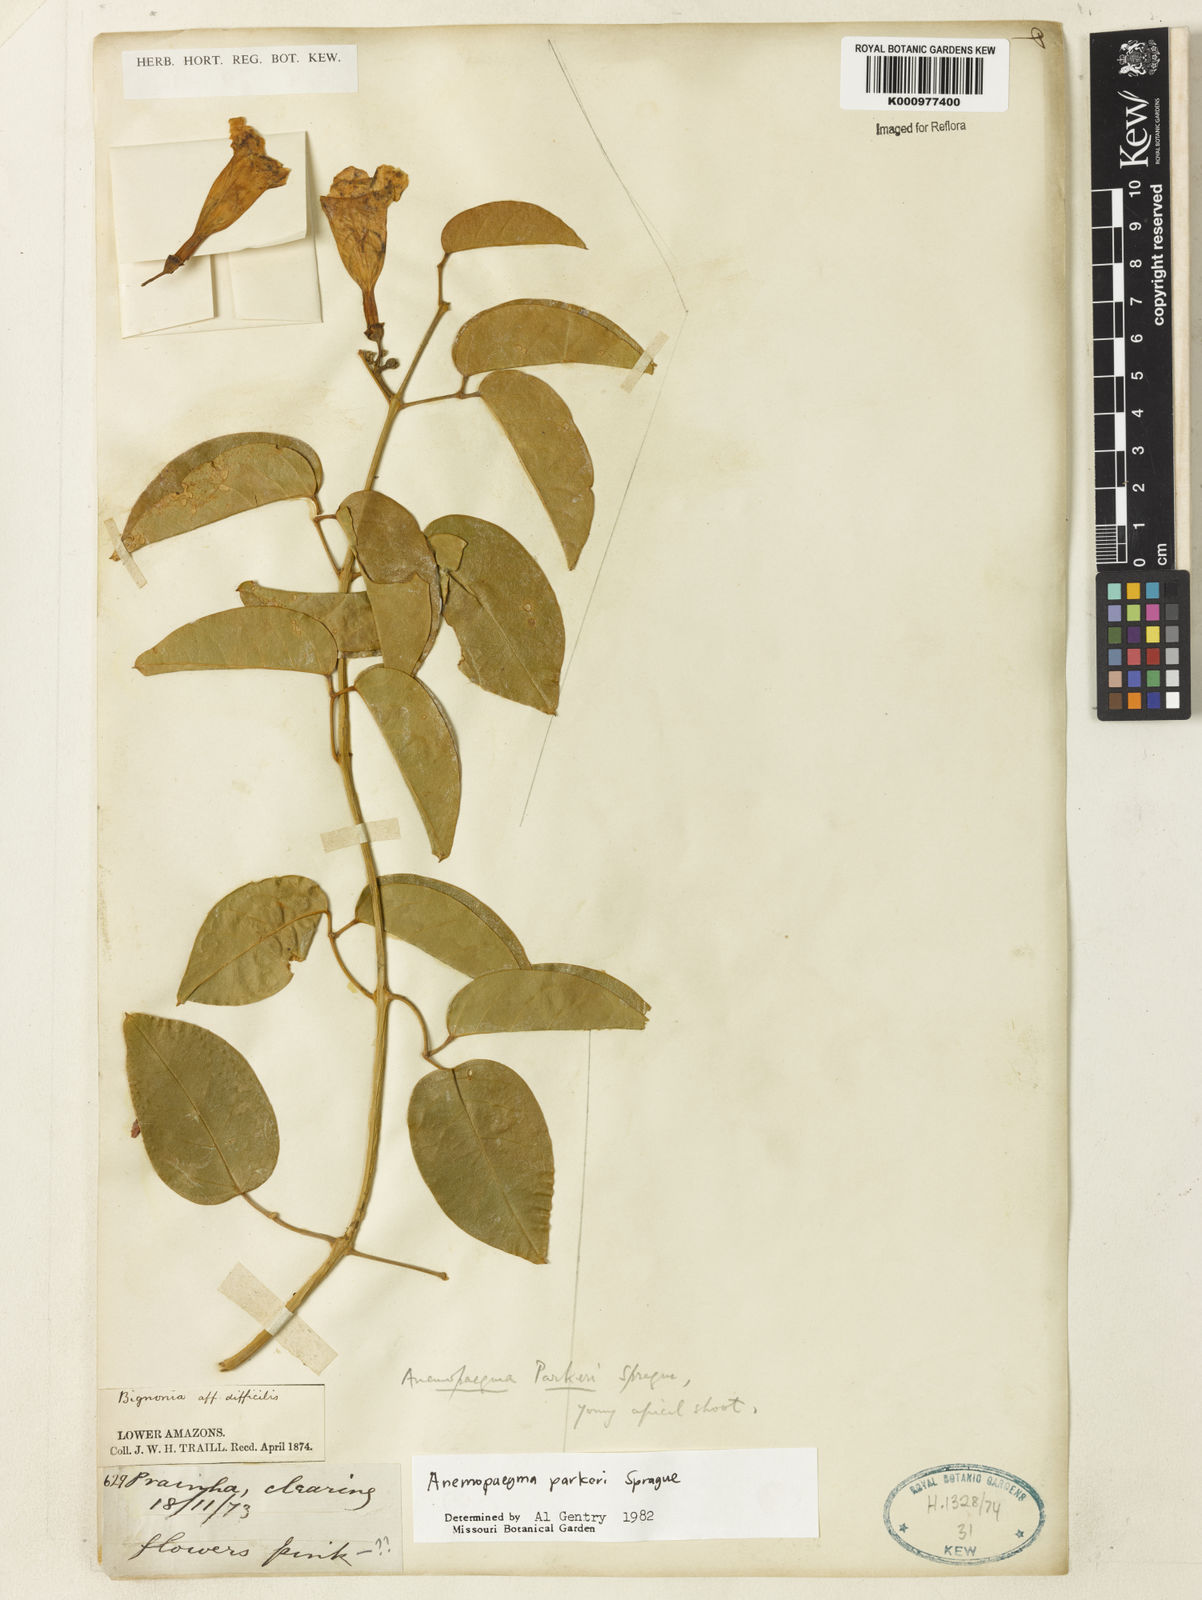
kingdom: Plantae
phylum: Tracheophyta
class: Magnoliopsida
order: Lamiales
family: Bignoniaceae
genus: Anemopaegma
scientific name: Anemopaegma parkeri
